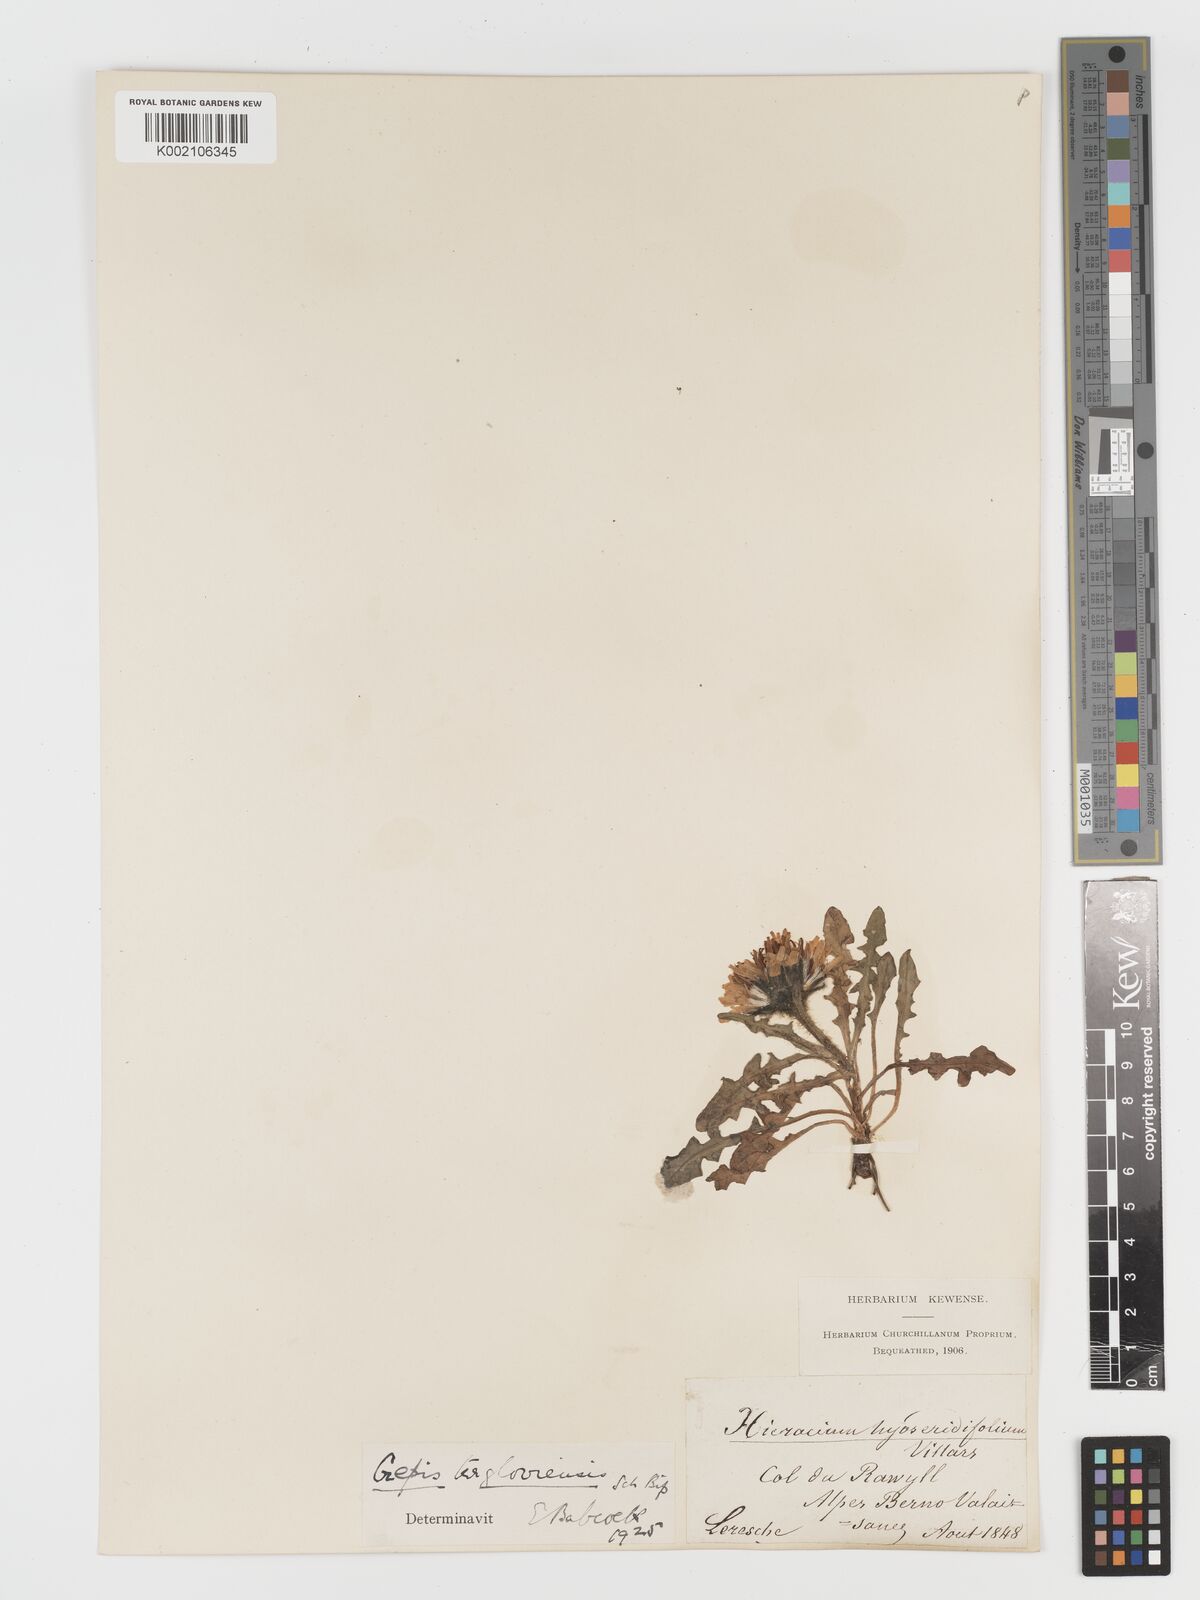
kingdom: Plantae
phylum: Tracheophyta
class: Magnoliopsida
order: Asterales
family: Asteraceae
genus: Crepis
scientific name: Crepis
